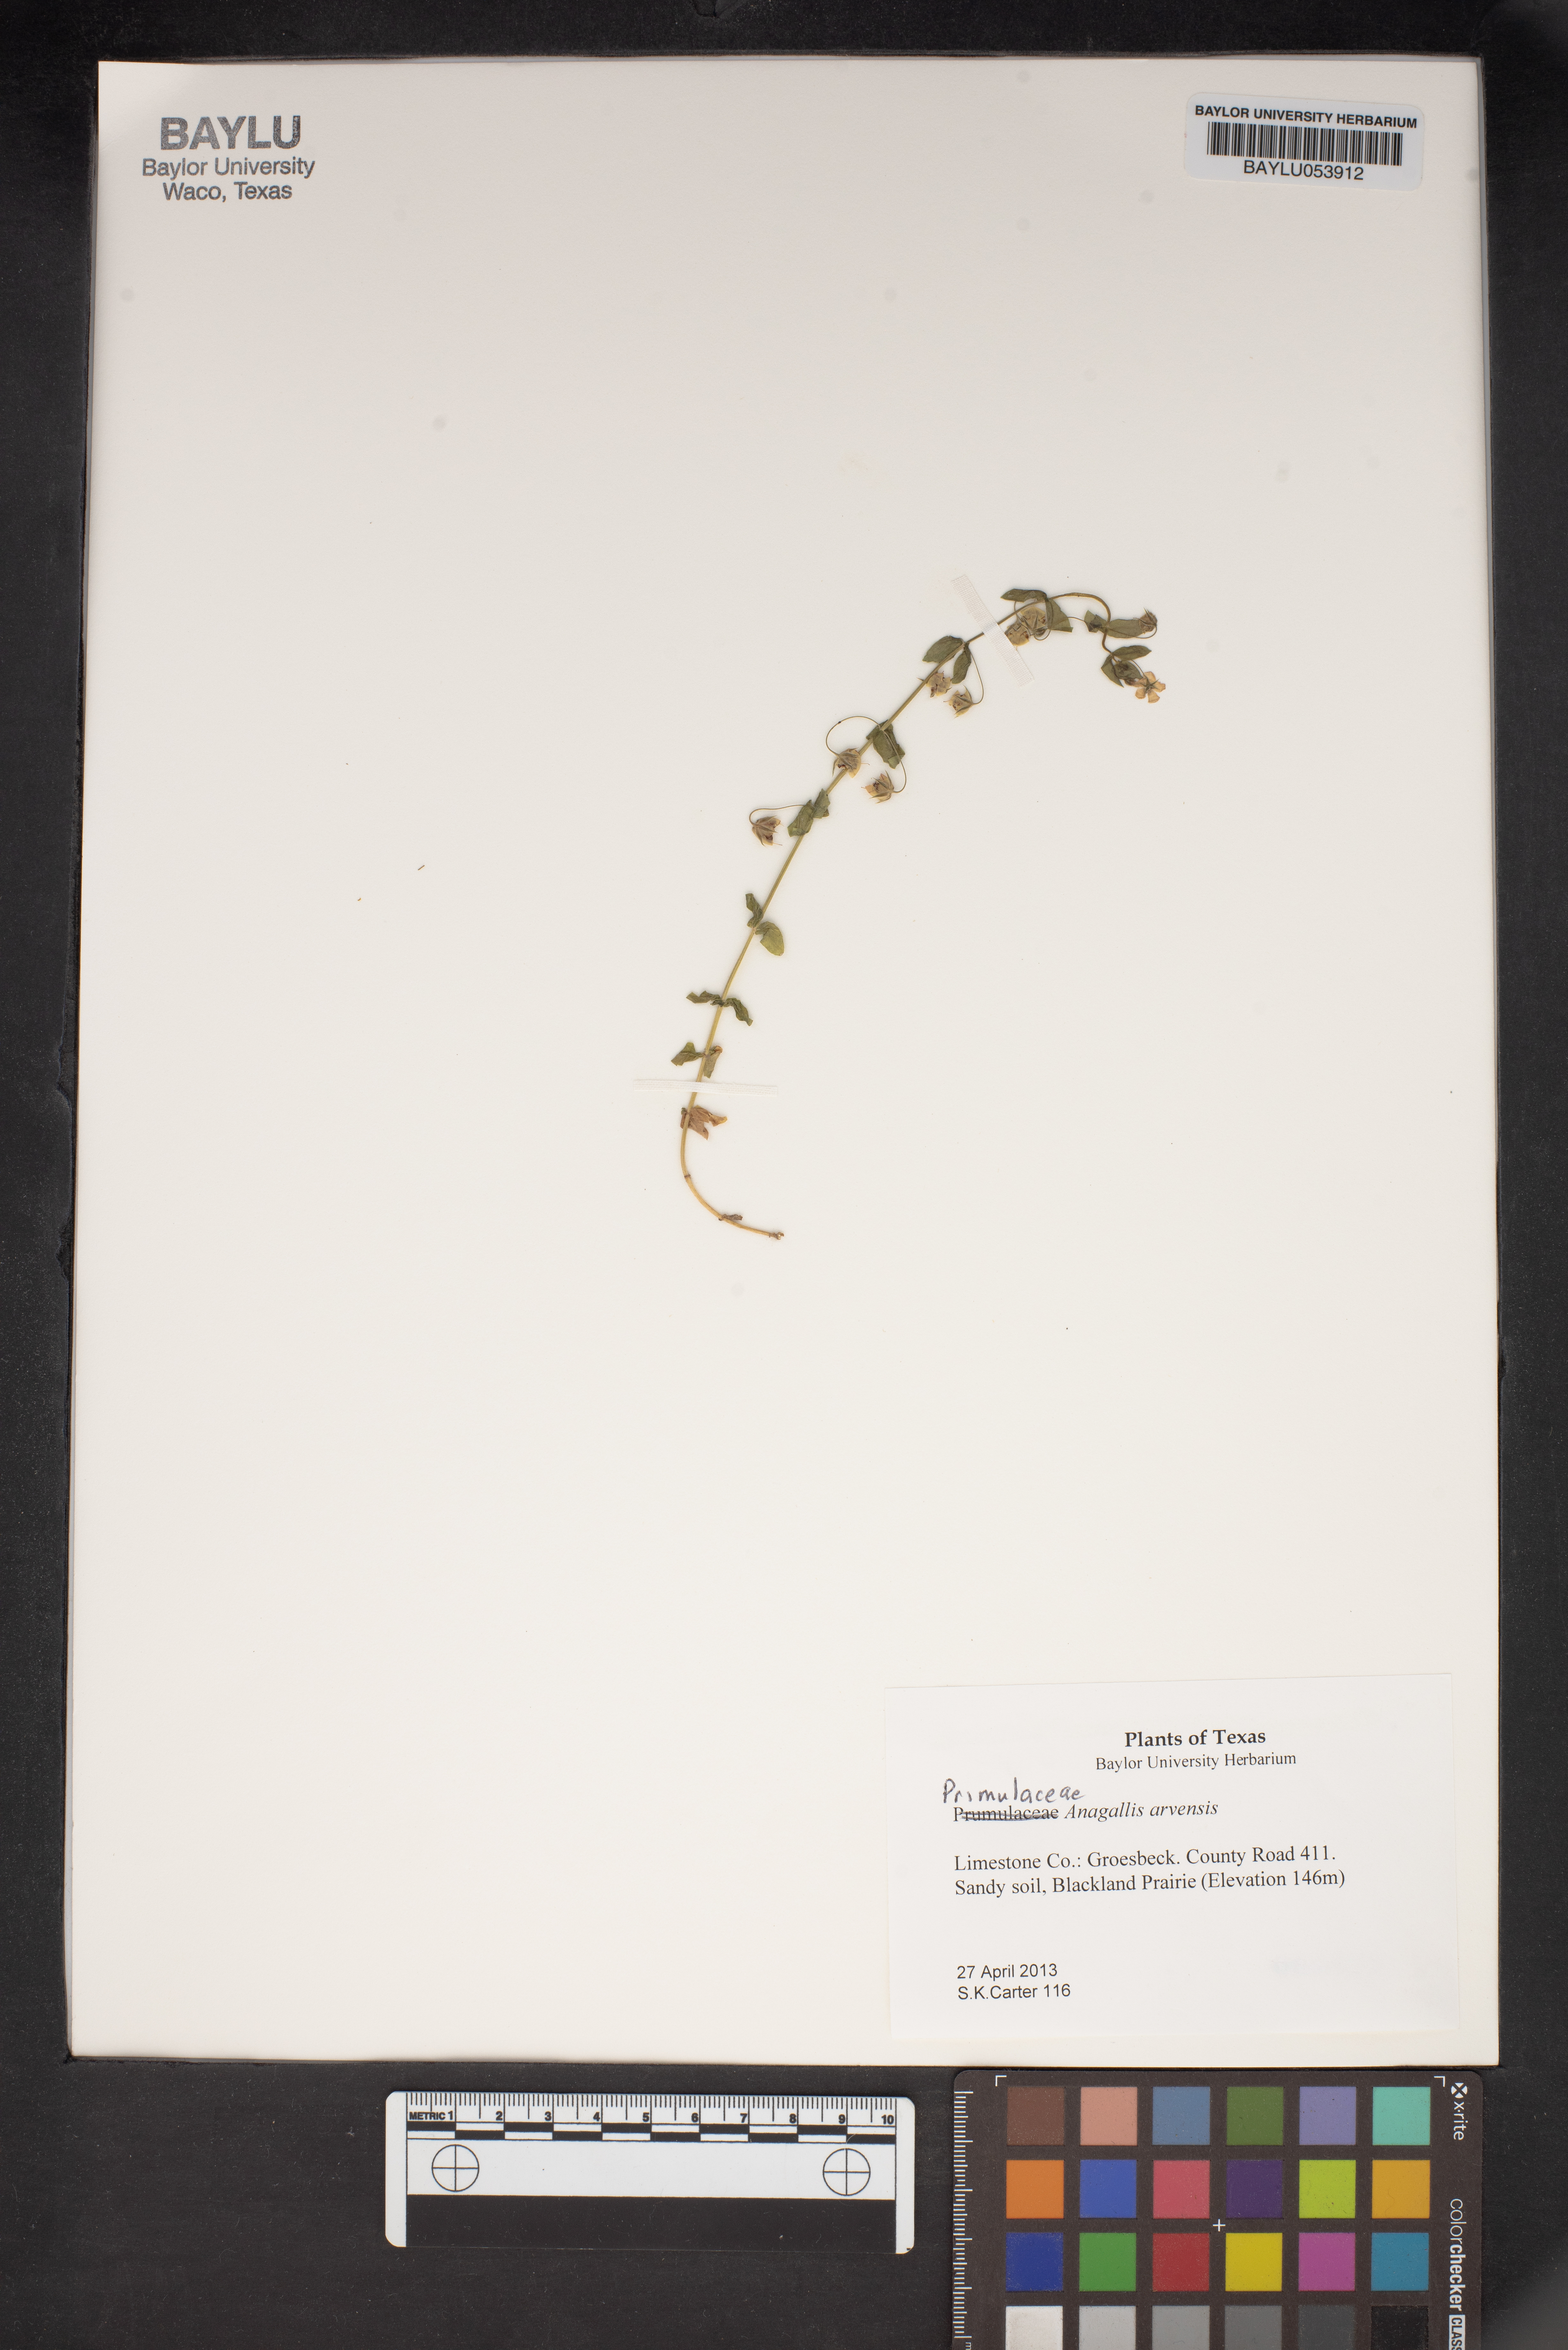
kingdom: Plantae
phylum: Tracheophyta
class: Magnoliopsida
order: Ericales
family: Primulaceae
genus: Lysimachia
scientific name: Lysimachia arvensis
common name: Scarlet pimpernel
